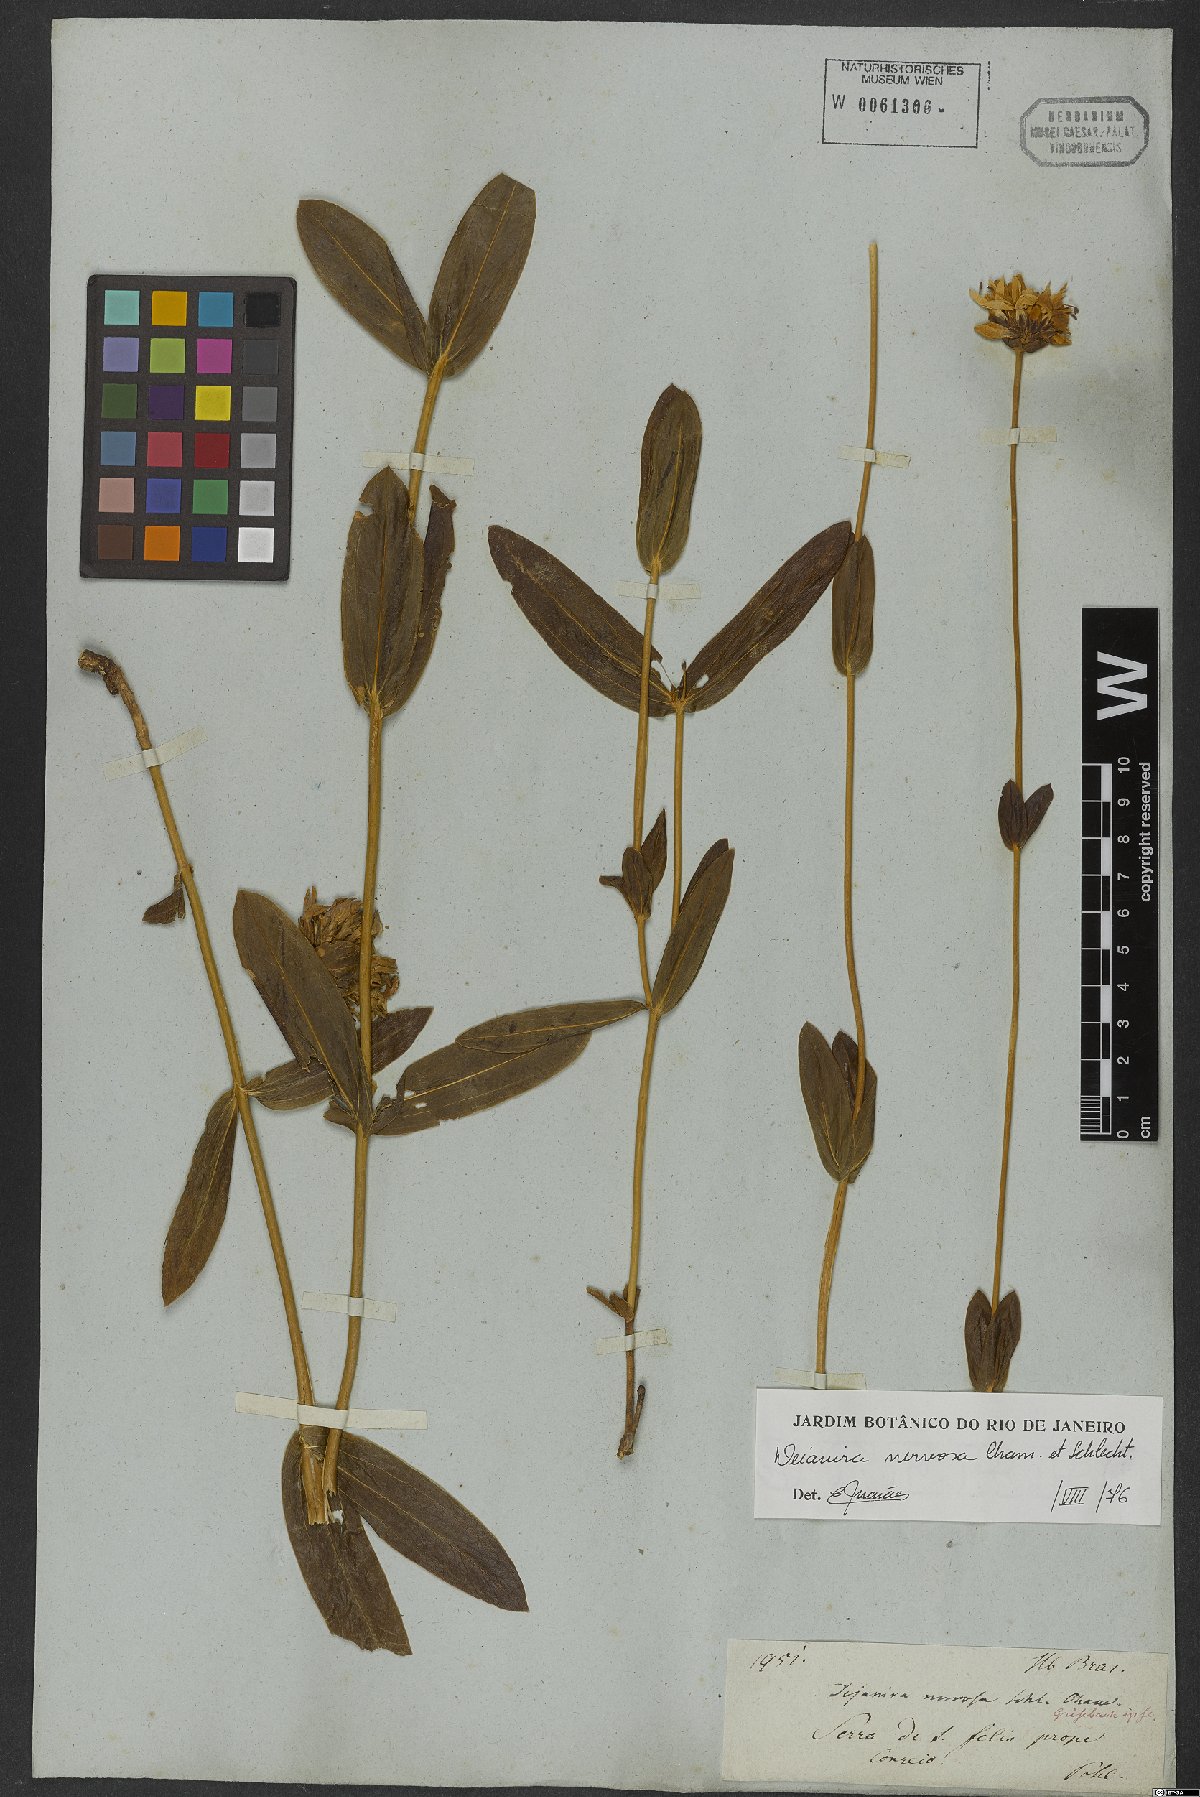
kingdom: Plantae
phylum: Tracheophyta
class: Magnoliopsida
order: Gentianales
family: Gentianaceae
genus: Deianira
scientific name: Deianira nervosa
